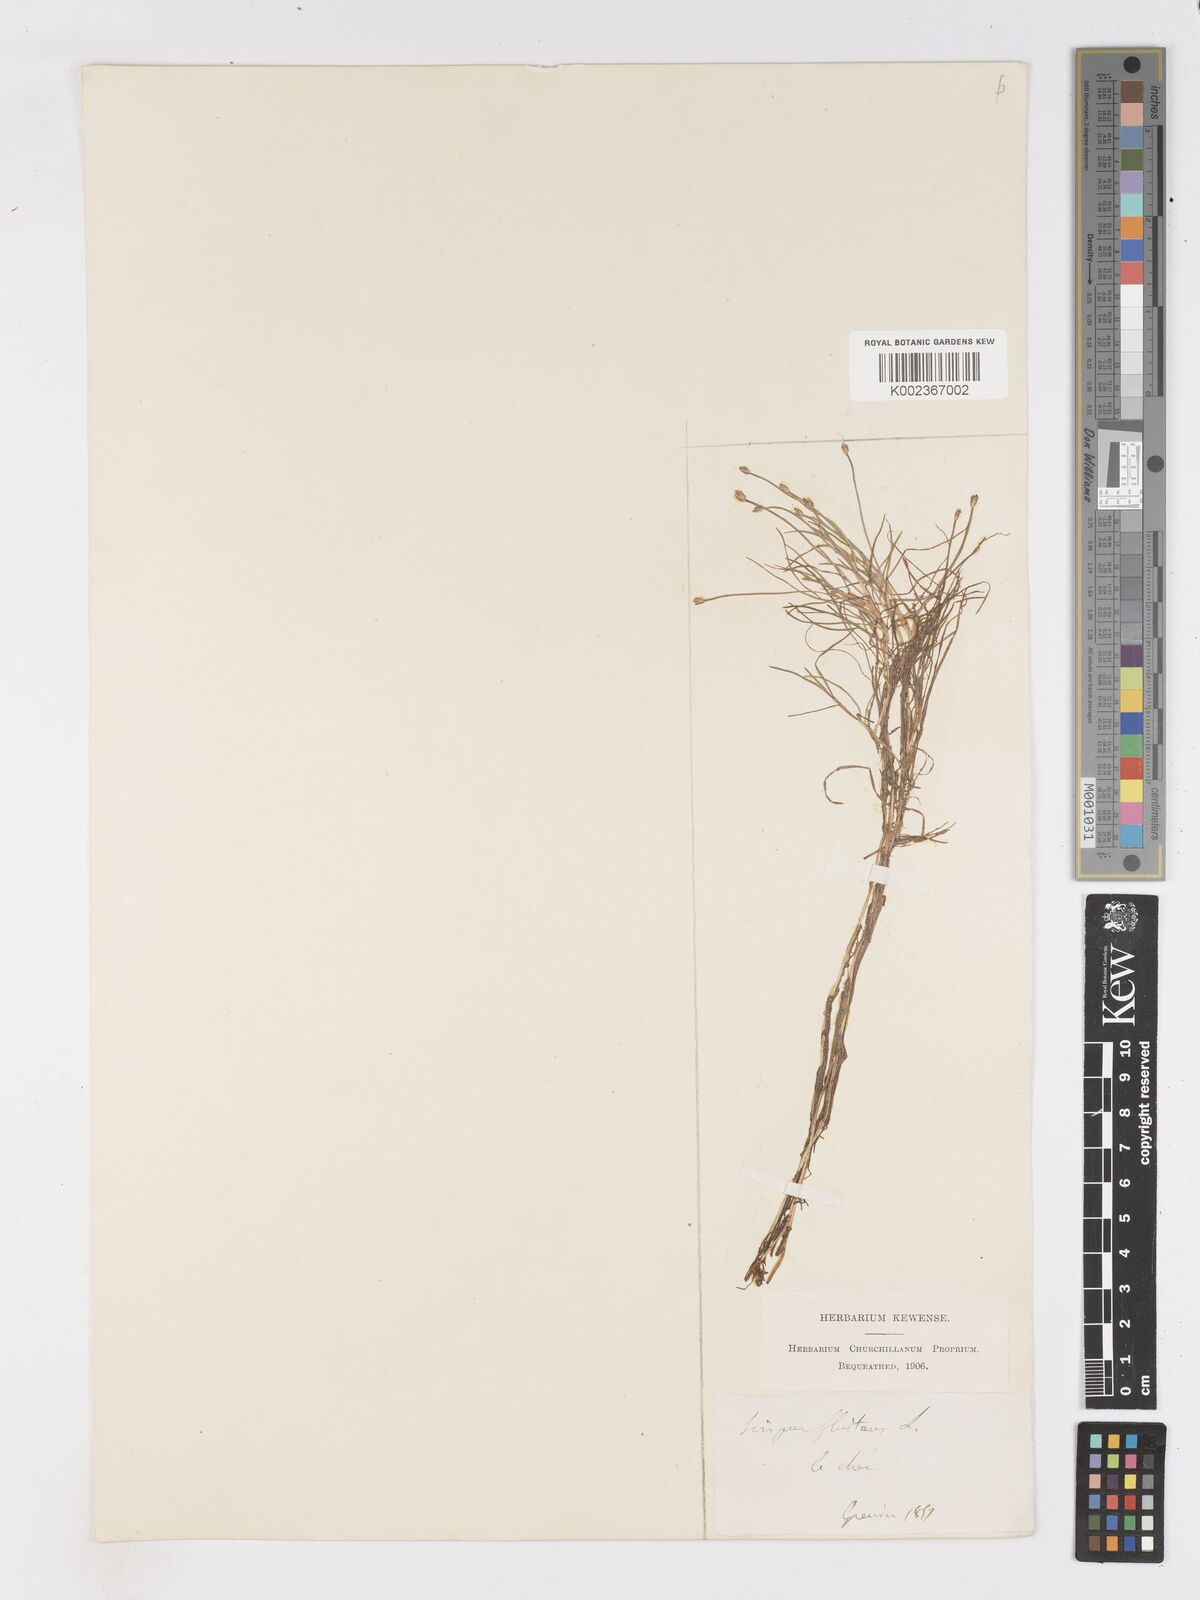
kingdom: Plantae
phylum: Tracheophyta
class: Liliopsida
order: Poales
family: Cyperaceae
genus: Isolepis
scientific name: Isolepis fluitans
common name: Floating club-rush
